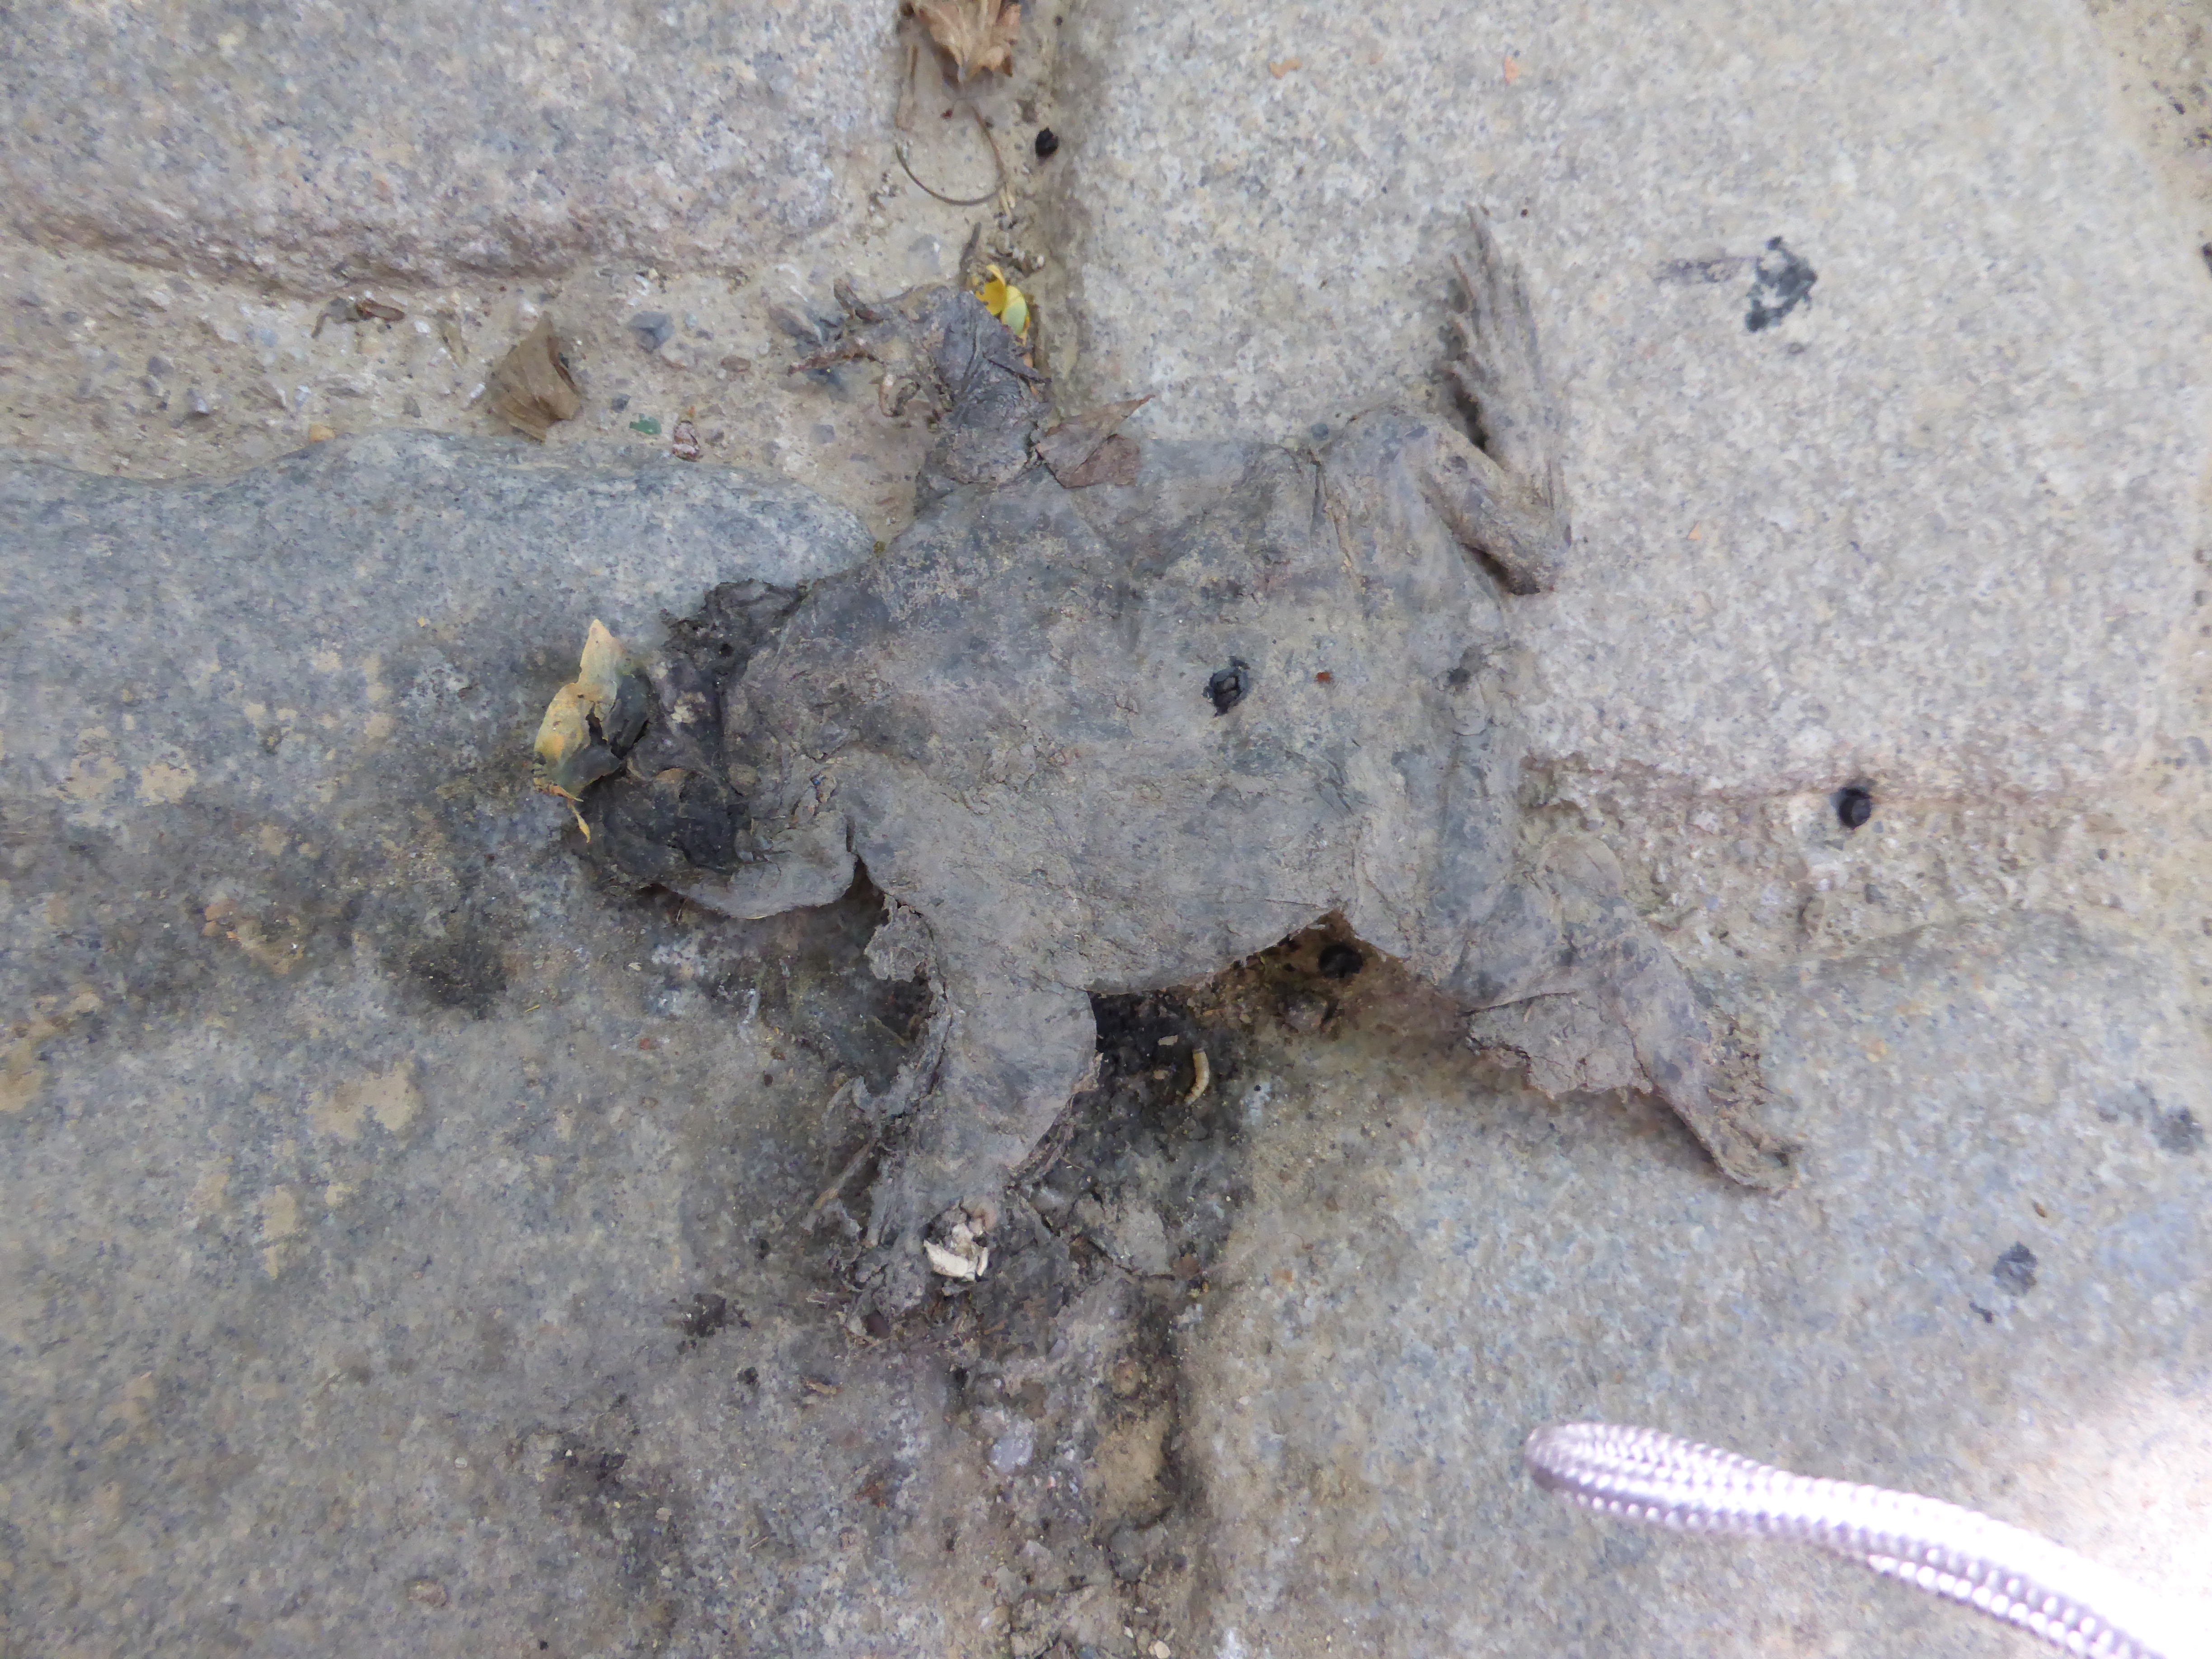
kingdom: Animalia
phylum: Chordata
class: Amphibia
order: Anura
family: Bufonidae
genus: Bufo
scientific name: Bufo bufo
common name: Common toad
